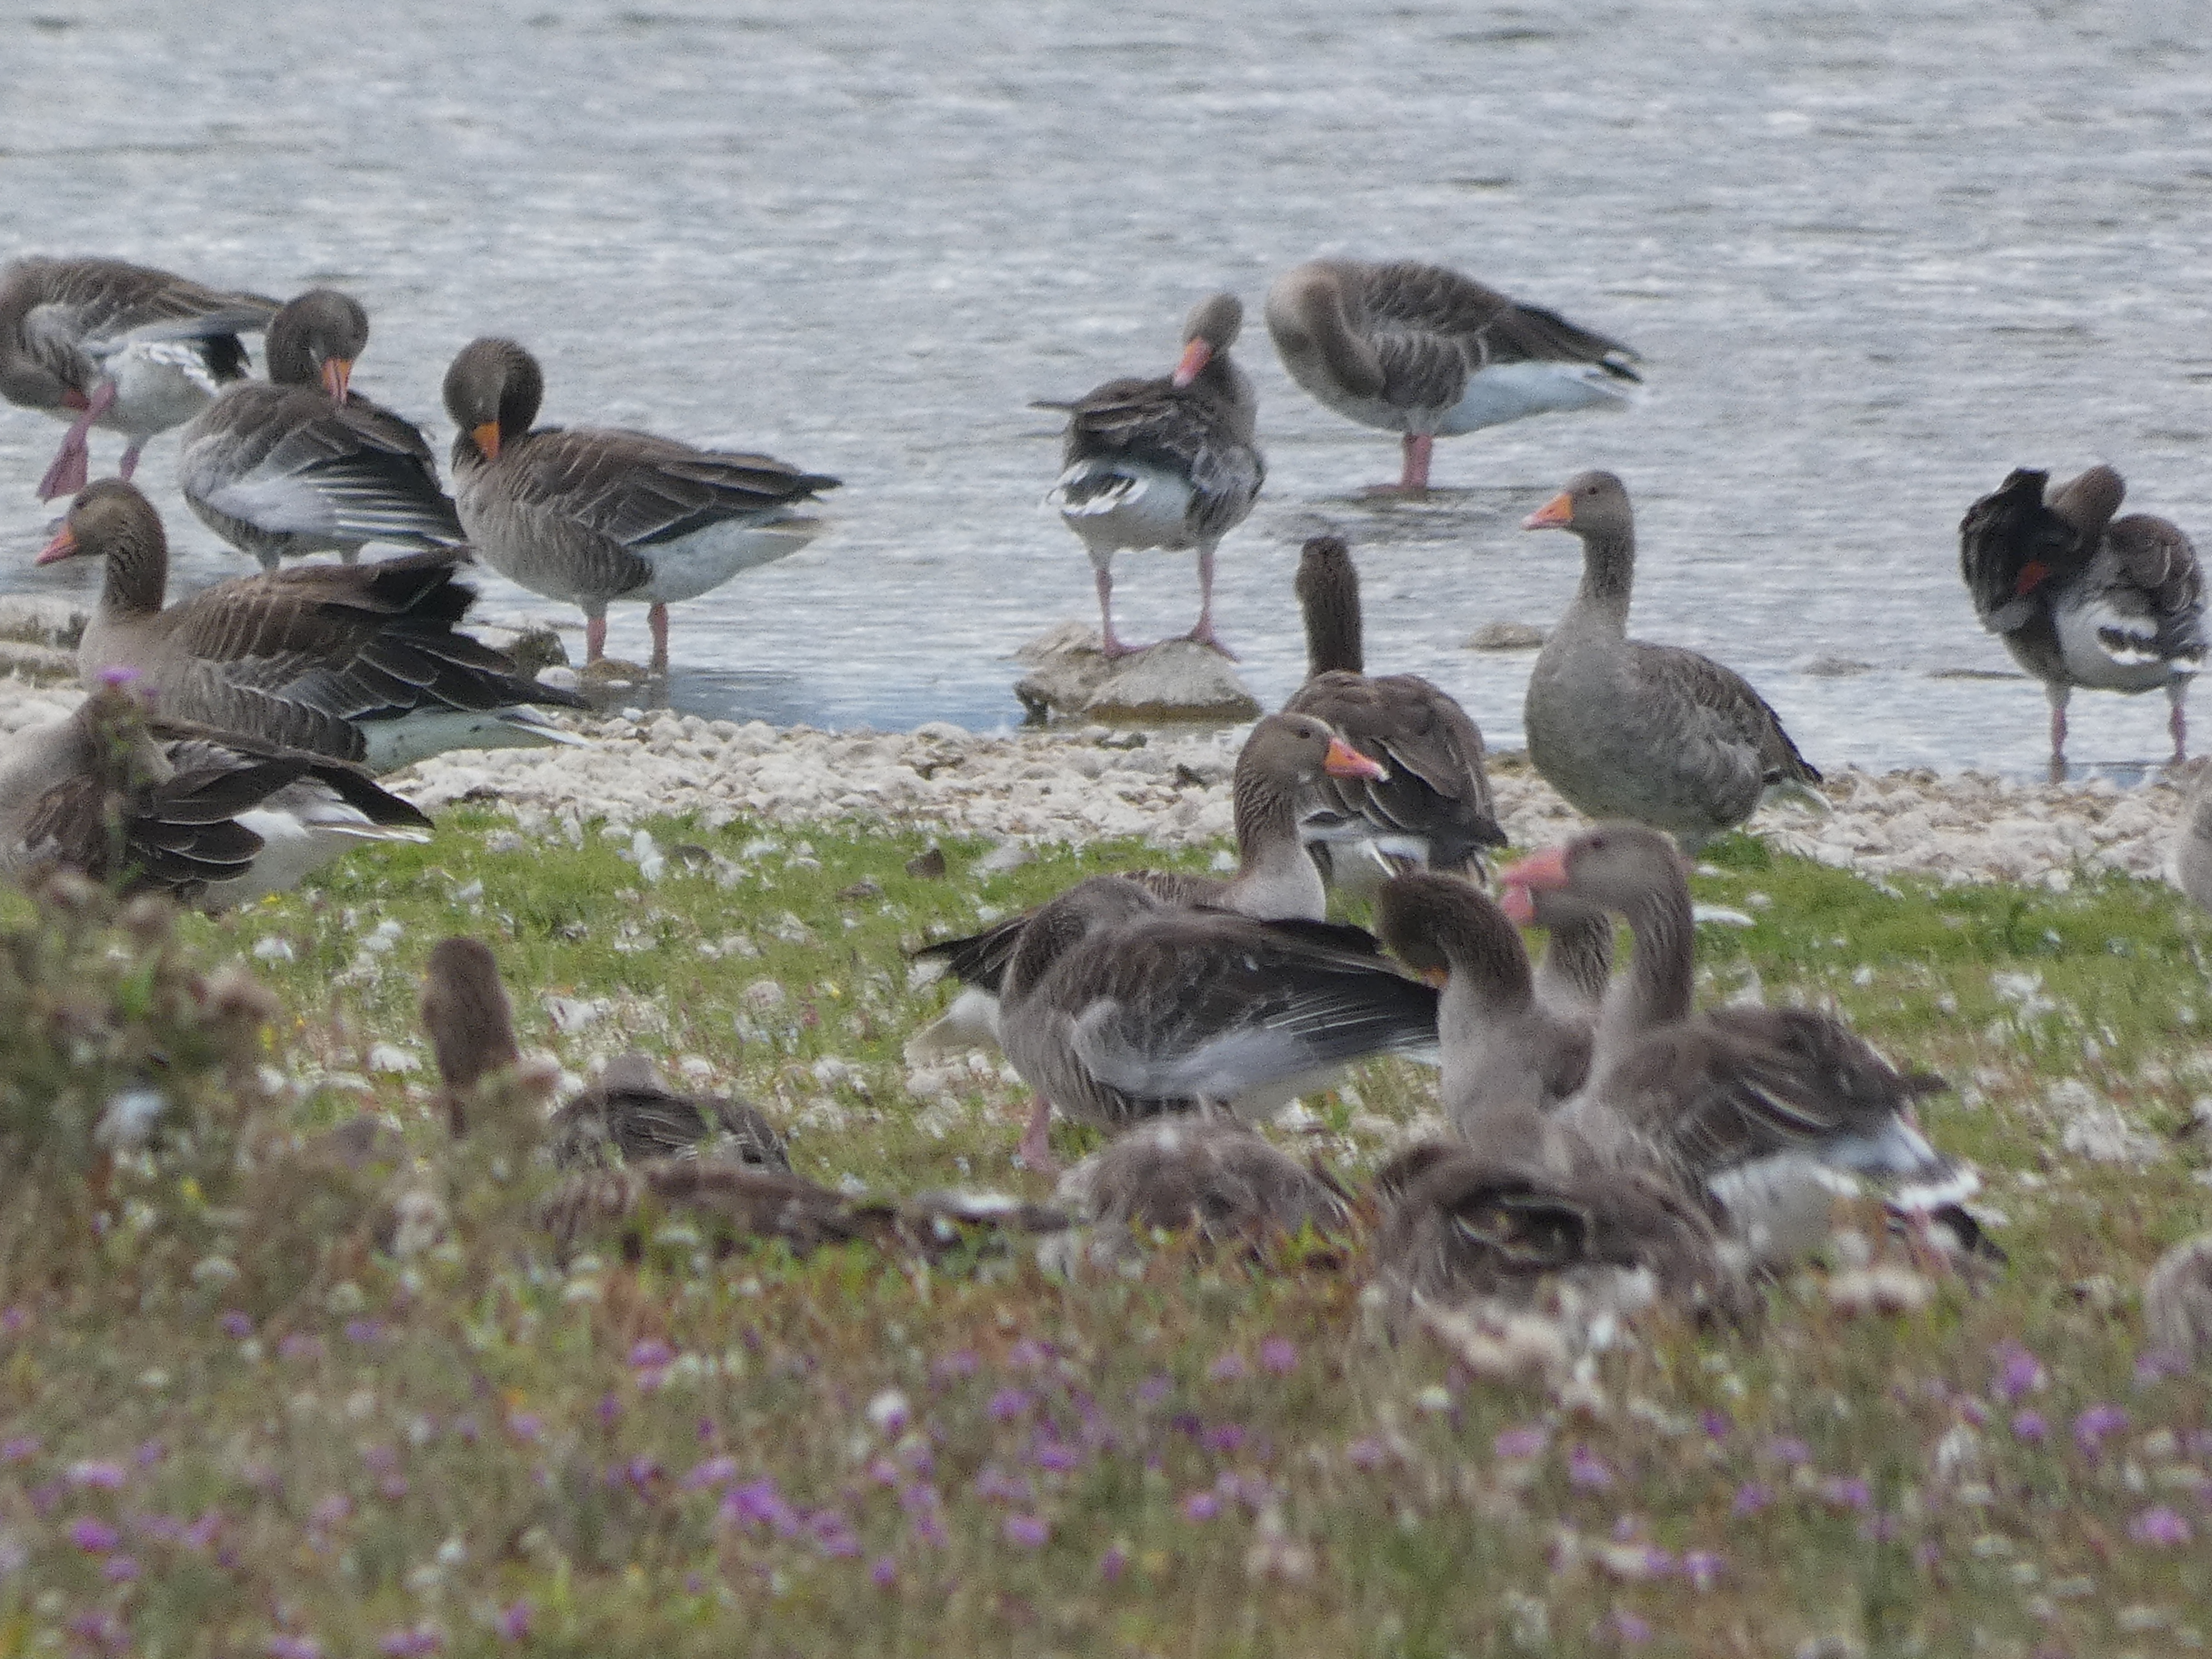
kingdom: Animalia
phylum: Chordata
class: Aves
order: Anseriformes
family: Anatidae
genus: Anser
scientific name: Anser anser
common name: Grågås
